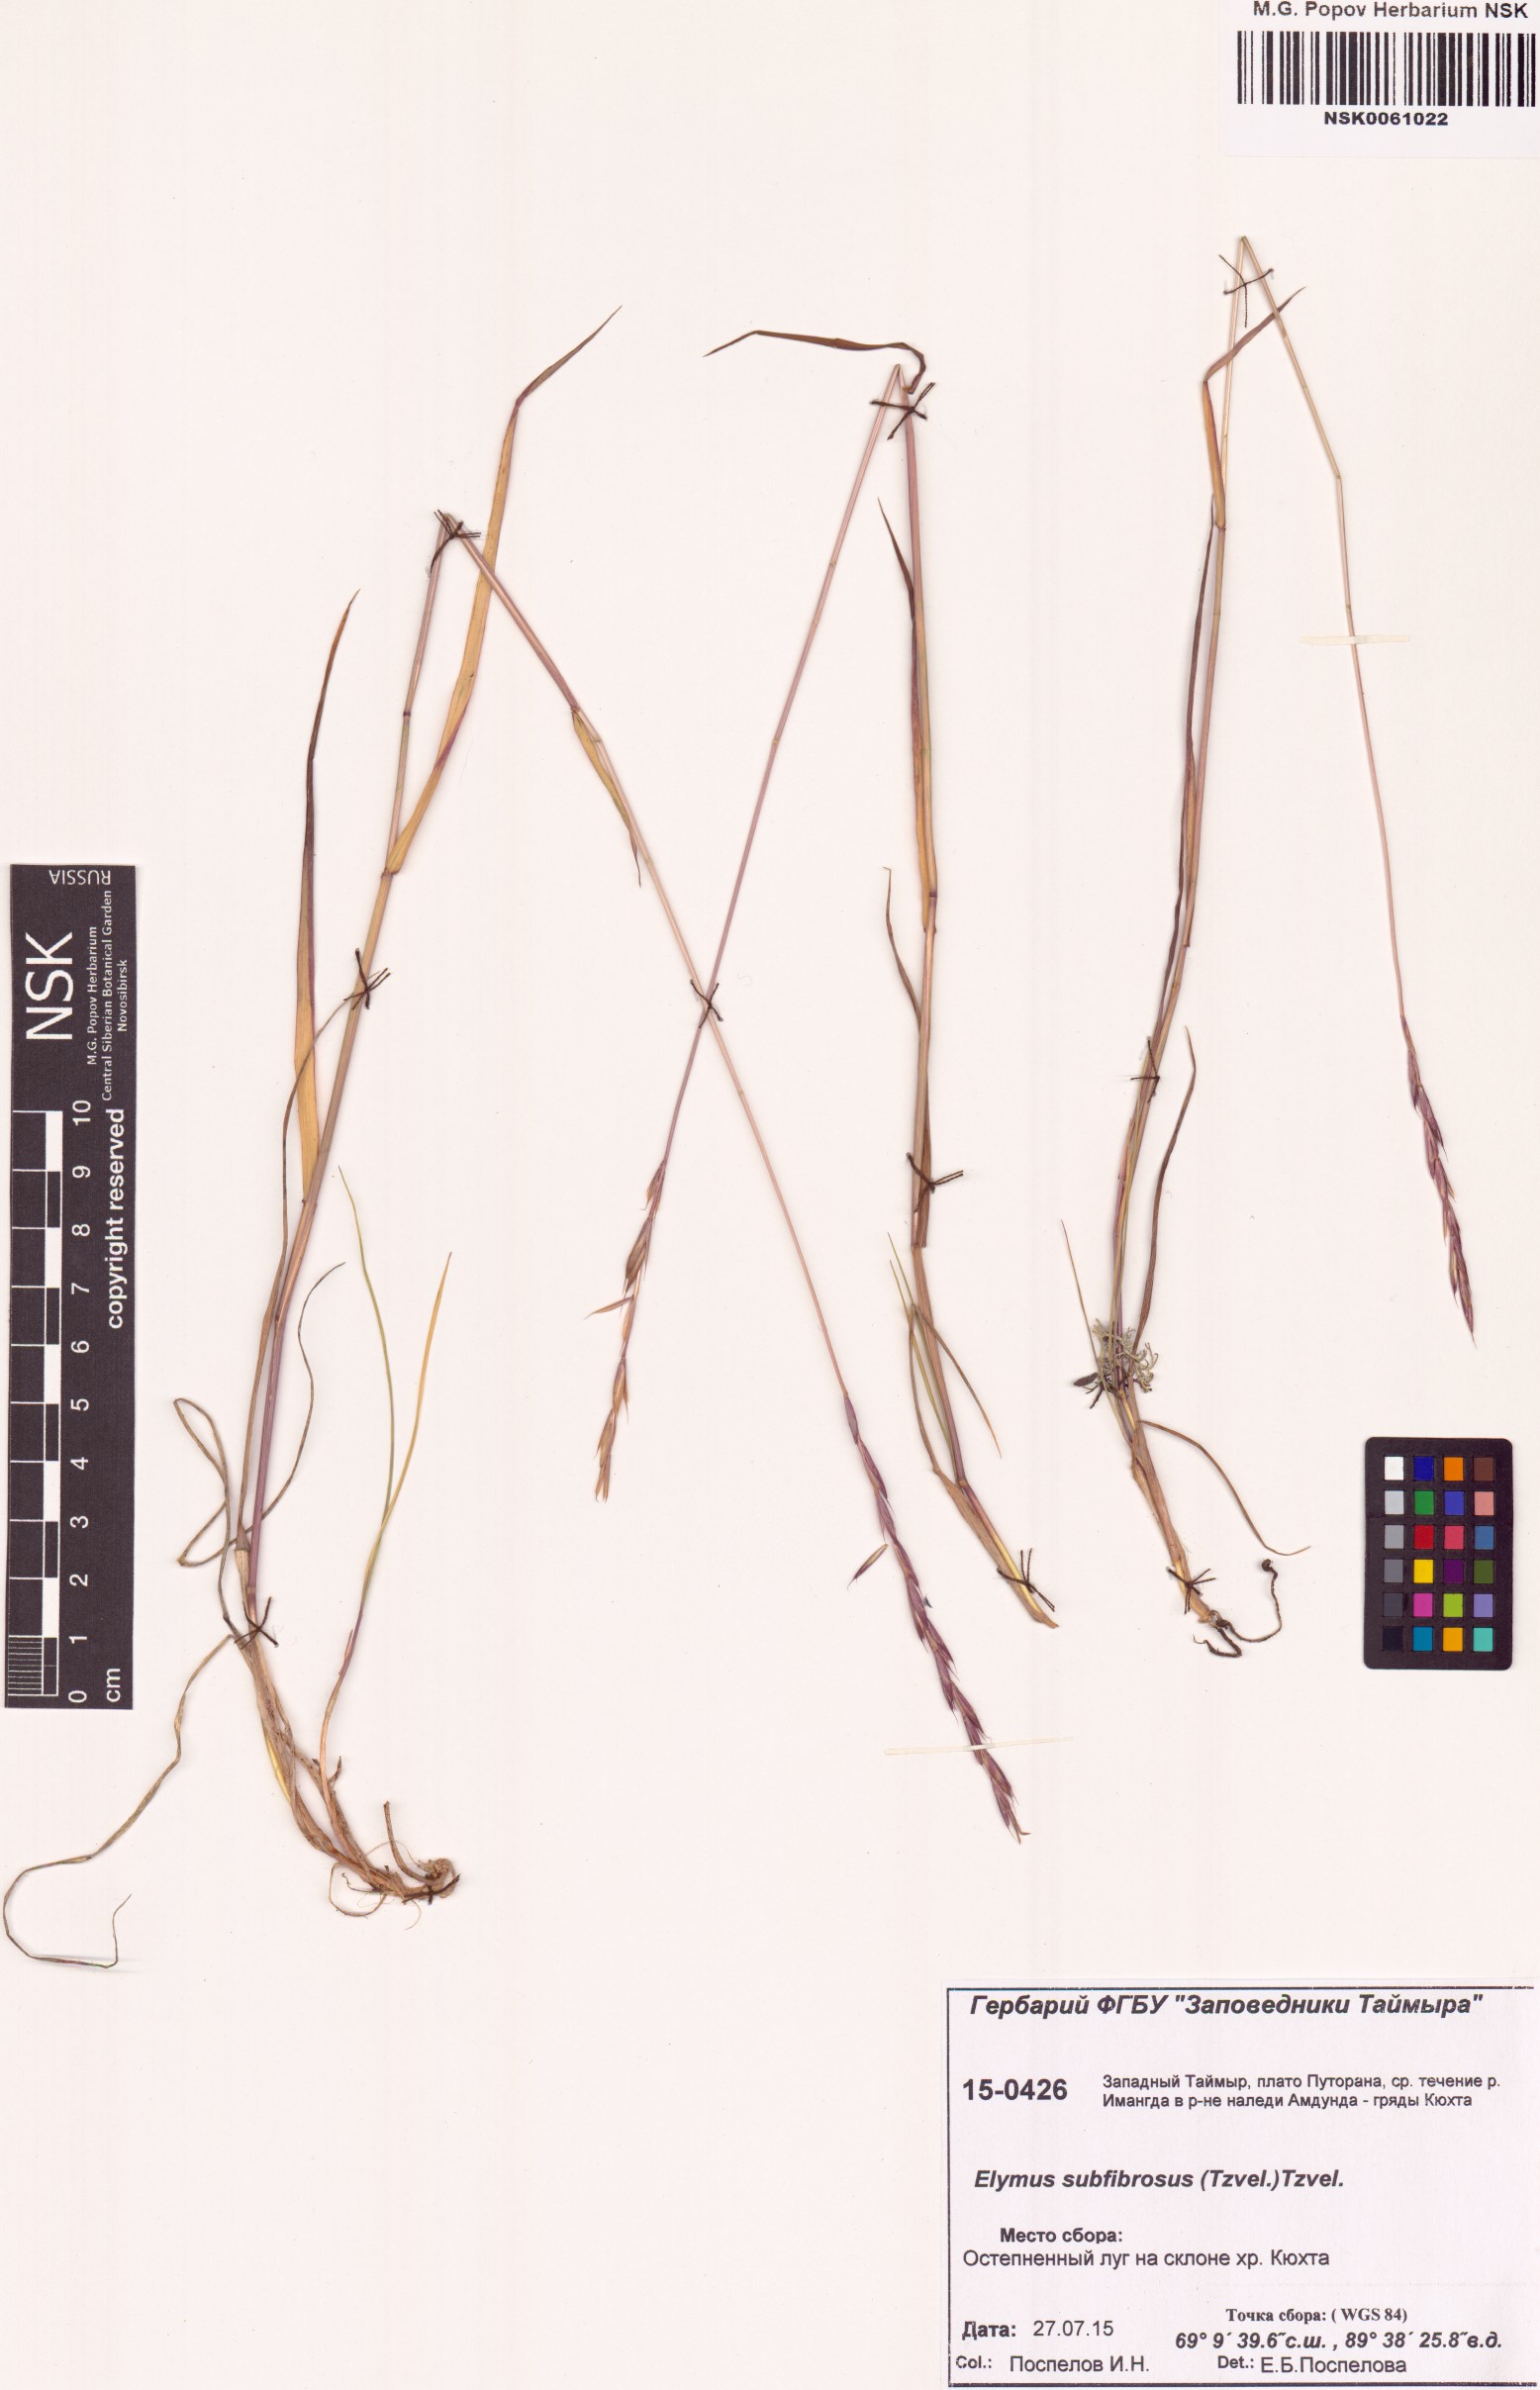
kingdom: Plantae
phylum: Tracheophyta
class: Liliopsida
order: Poales
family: Poaceae
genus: Elymus
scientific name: Elymus fibrosus
